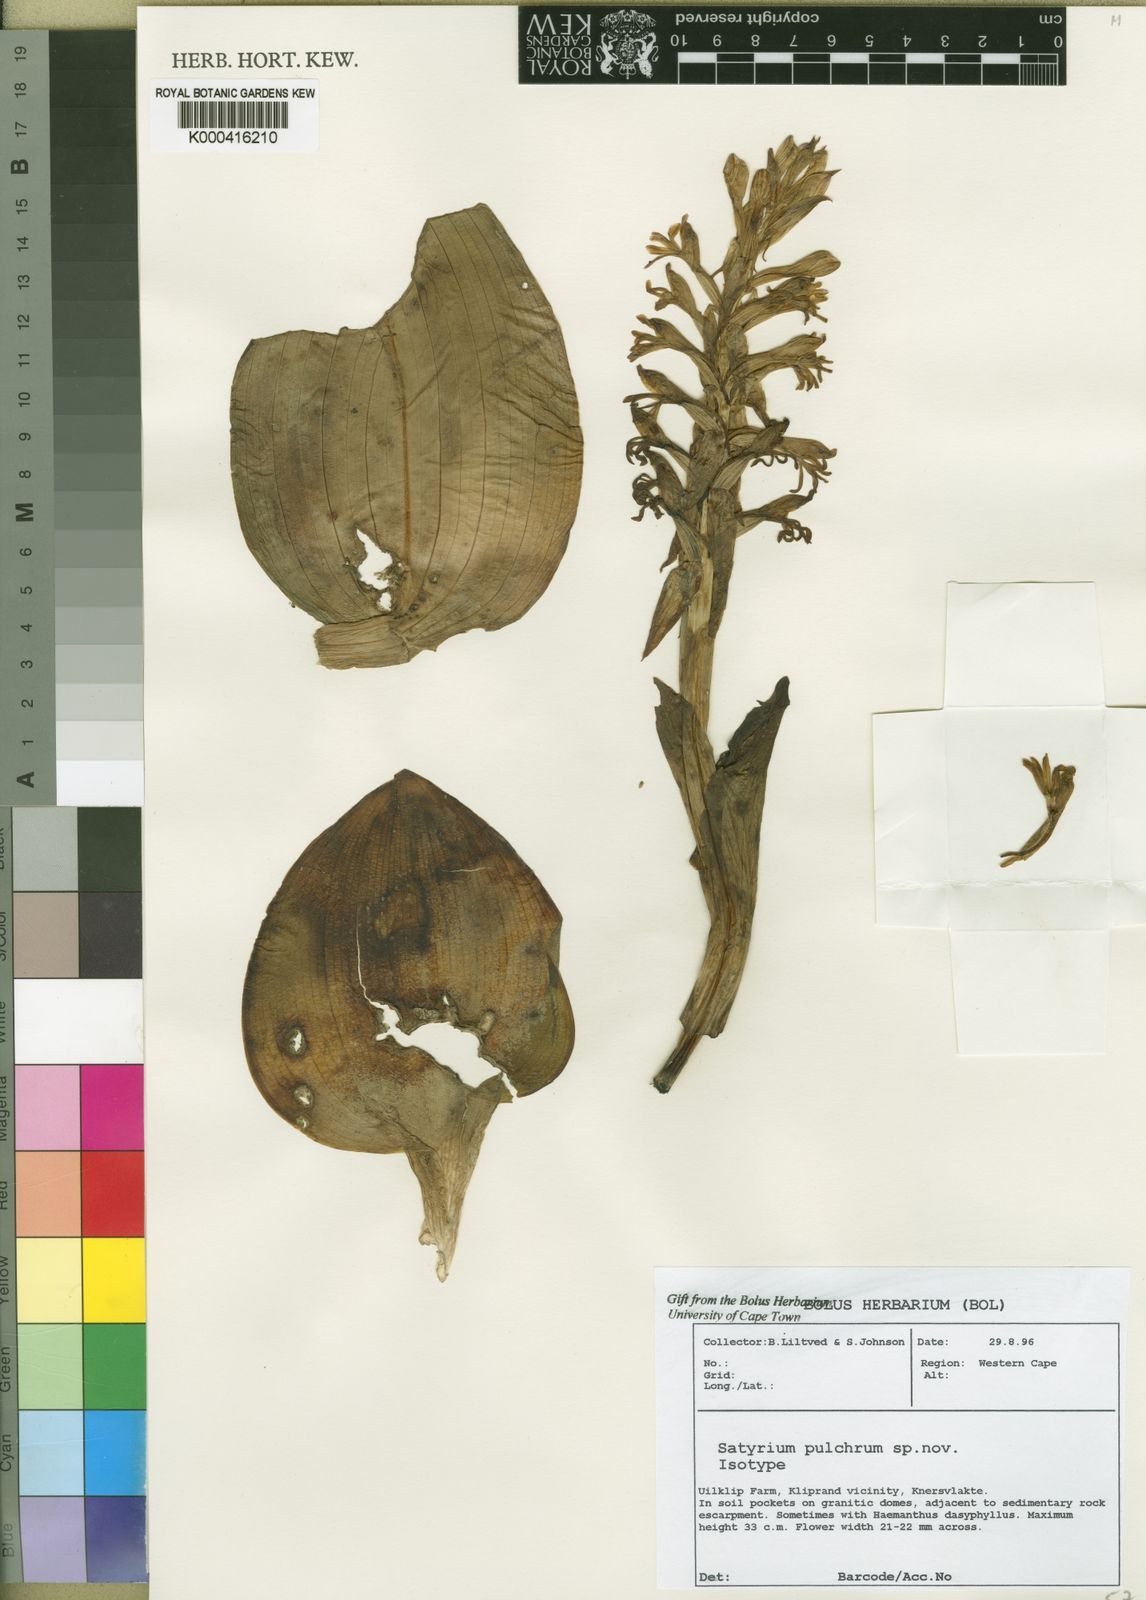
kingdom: Plantae
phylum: Tracheophyta
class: Liliopsida
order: Asparagales
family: Orchidaceae
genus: Satyrium
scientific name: Satyrium pulchrum
